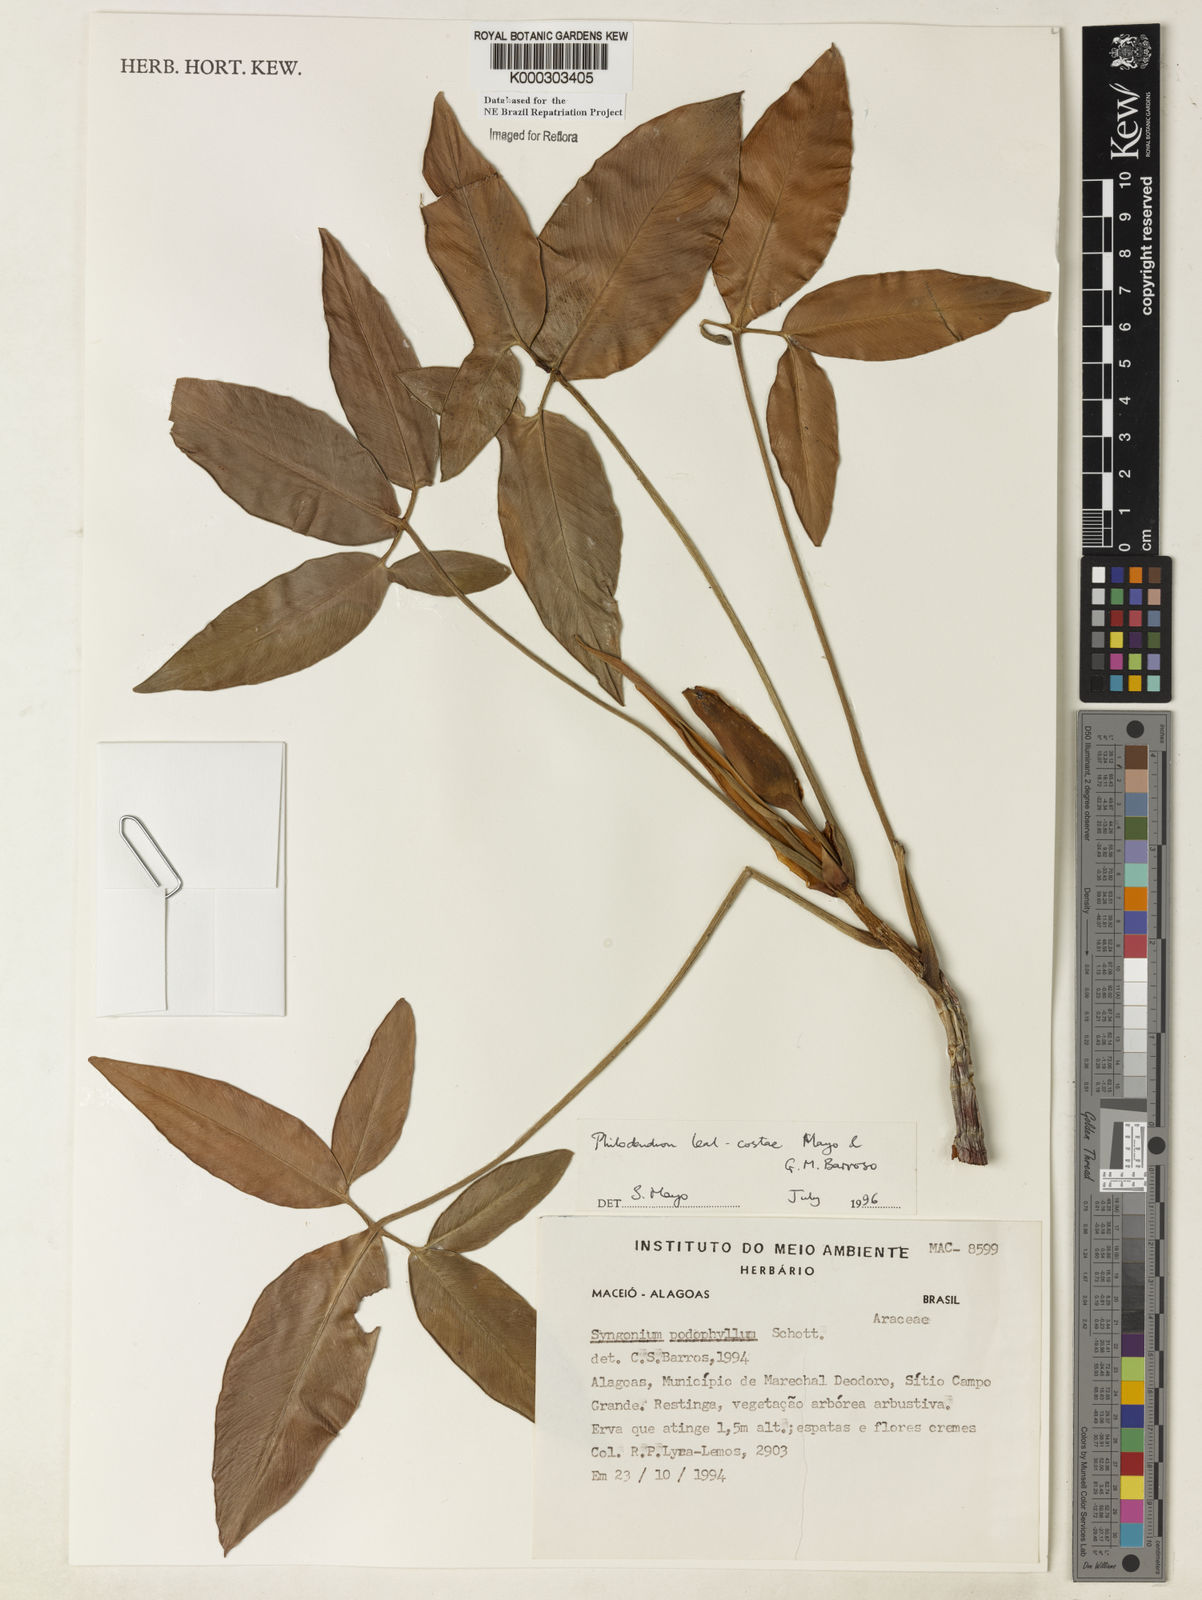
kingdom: Plantae
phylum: Tracheophyta
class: Liliopsida
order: Alismatales
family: Araceae
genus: Thaumatophyllum
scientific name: Thaumatophyllum leal-costae
